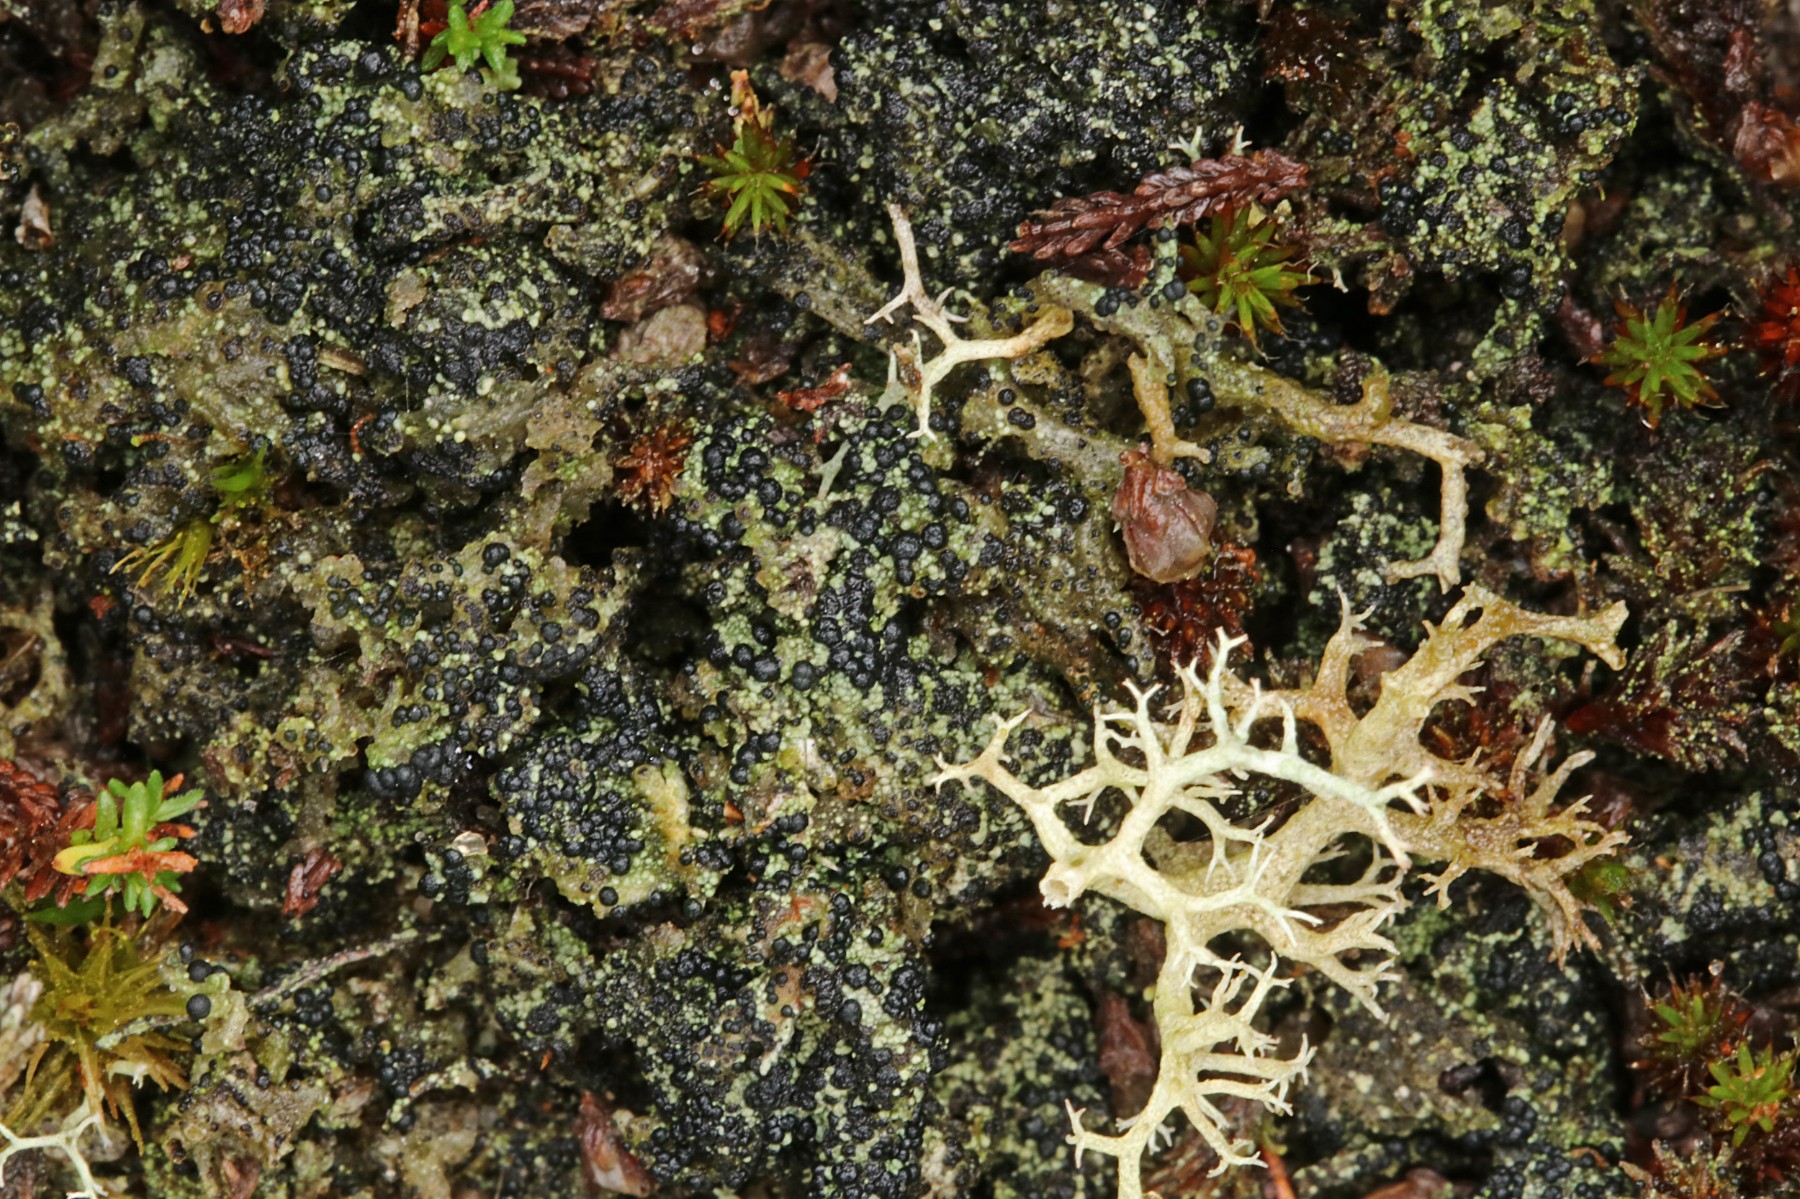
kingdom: Fungi
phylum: Ascomycota
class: Lecanoromycetes
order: Lecanorales
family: Byssolomataceae
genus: Micarea
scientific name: Micarea lignaria
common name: tørve-knaplav
